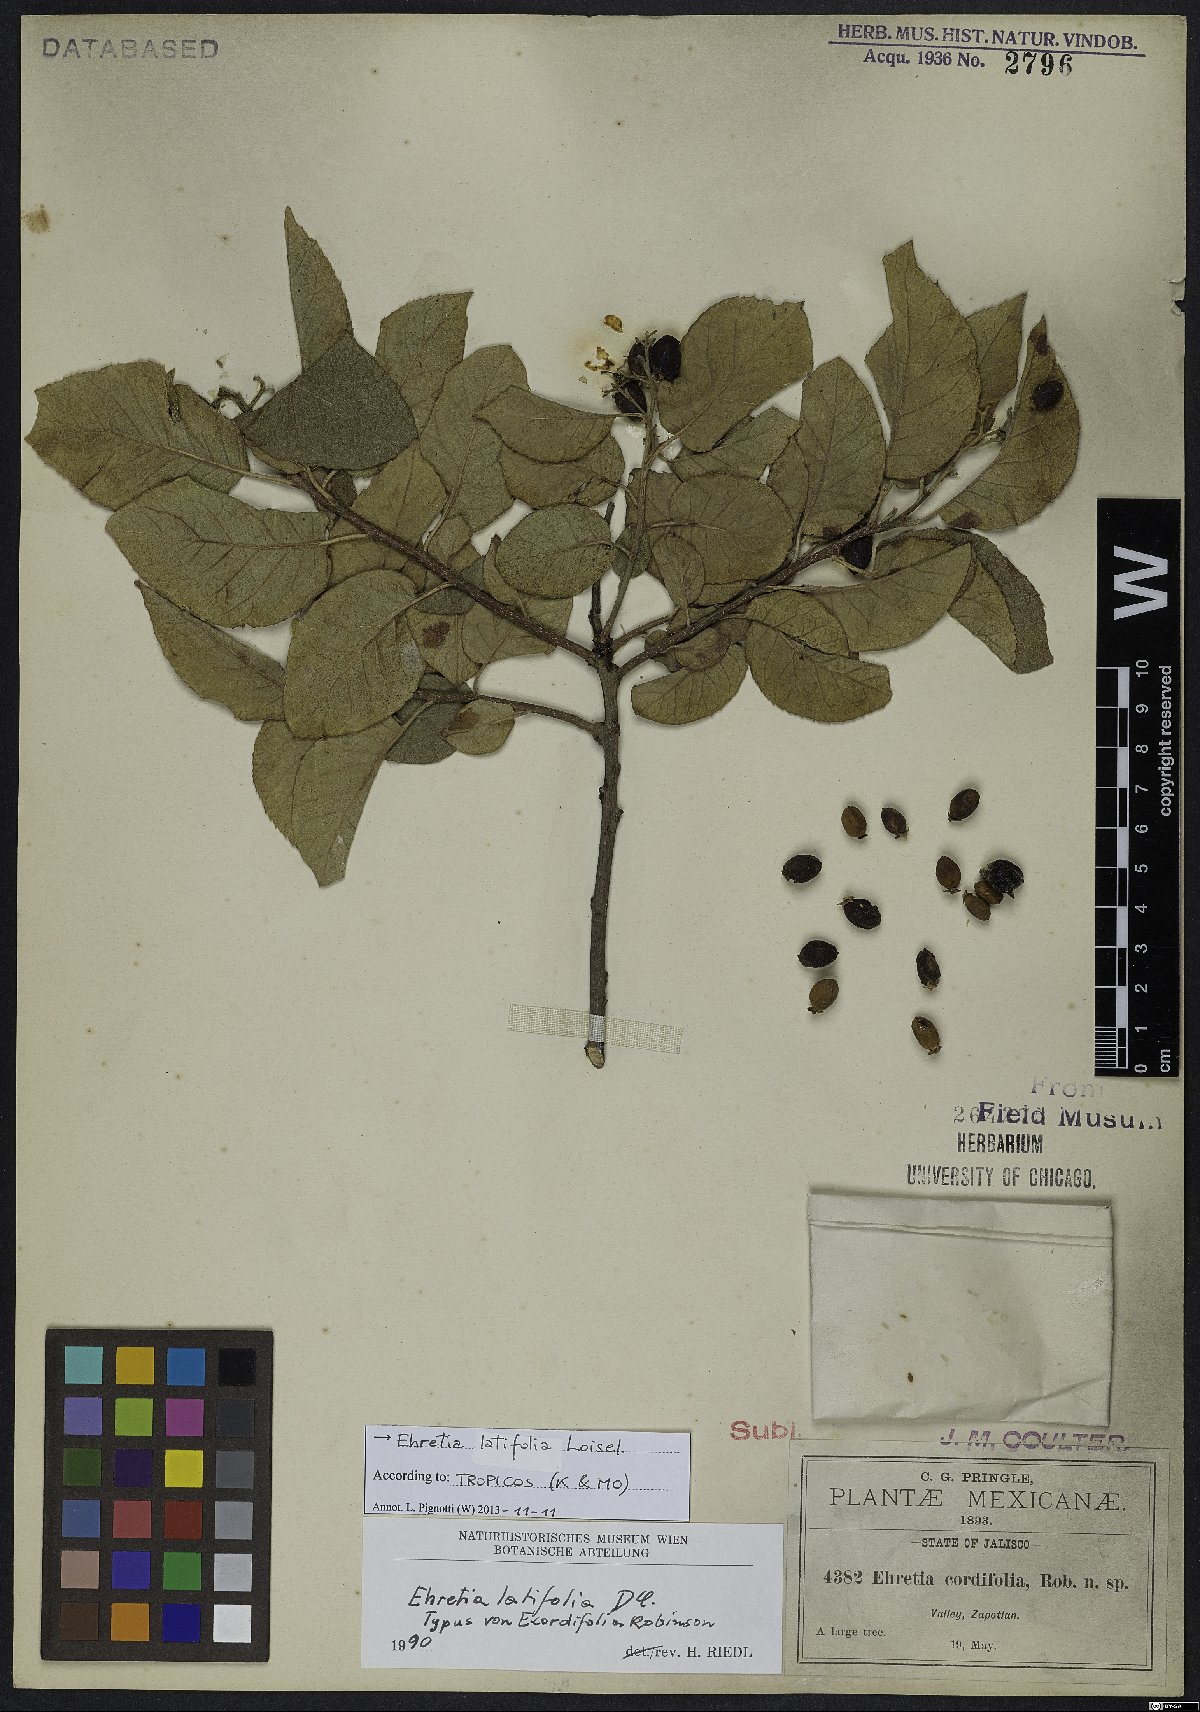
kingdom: Plantae
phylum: Tracheophyta
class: Magnoliopsida
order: Boraginales
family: Ehretiaceae
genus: Ehretia
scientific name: Ehretia latifolia
